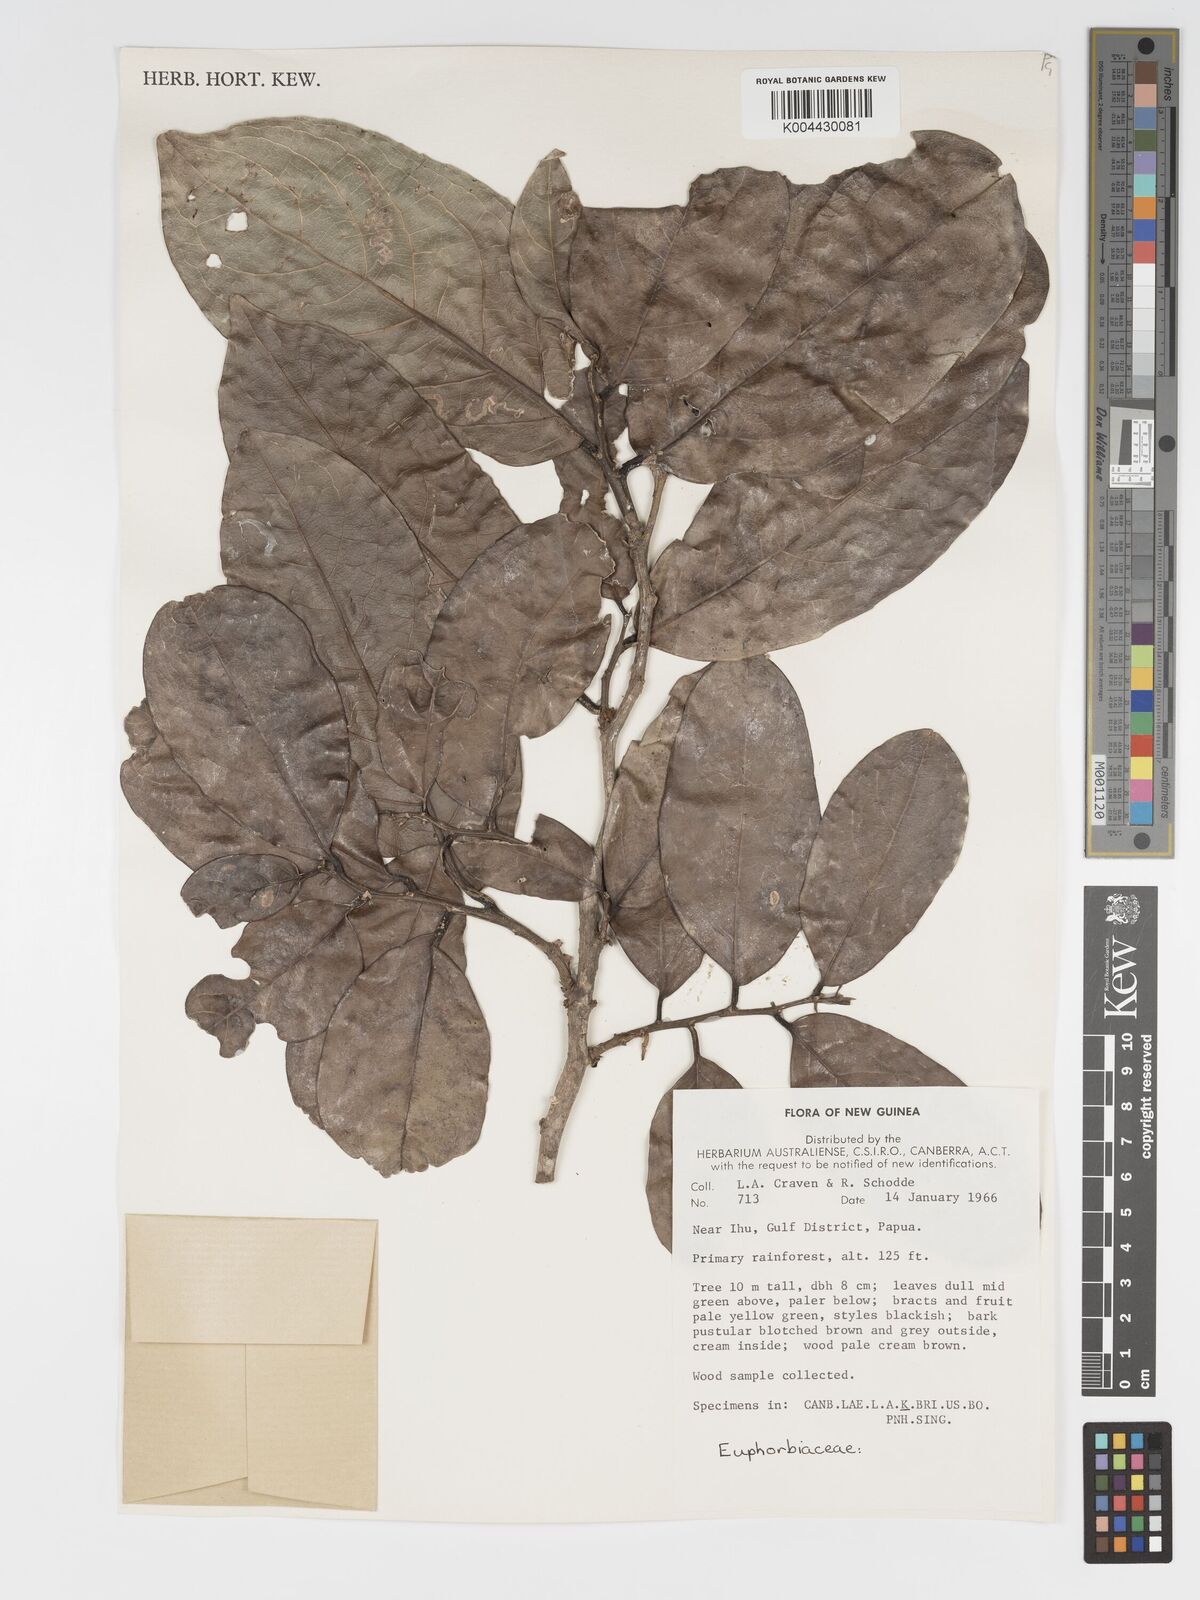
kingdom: Plantae
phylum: Tracheophyta
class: Magnoliopsida
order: Malpighiales
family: Putranjivaceae
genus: Drypetes
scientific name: Drypetes longifolia
